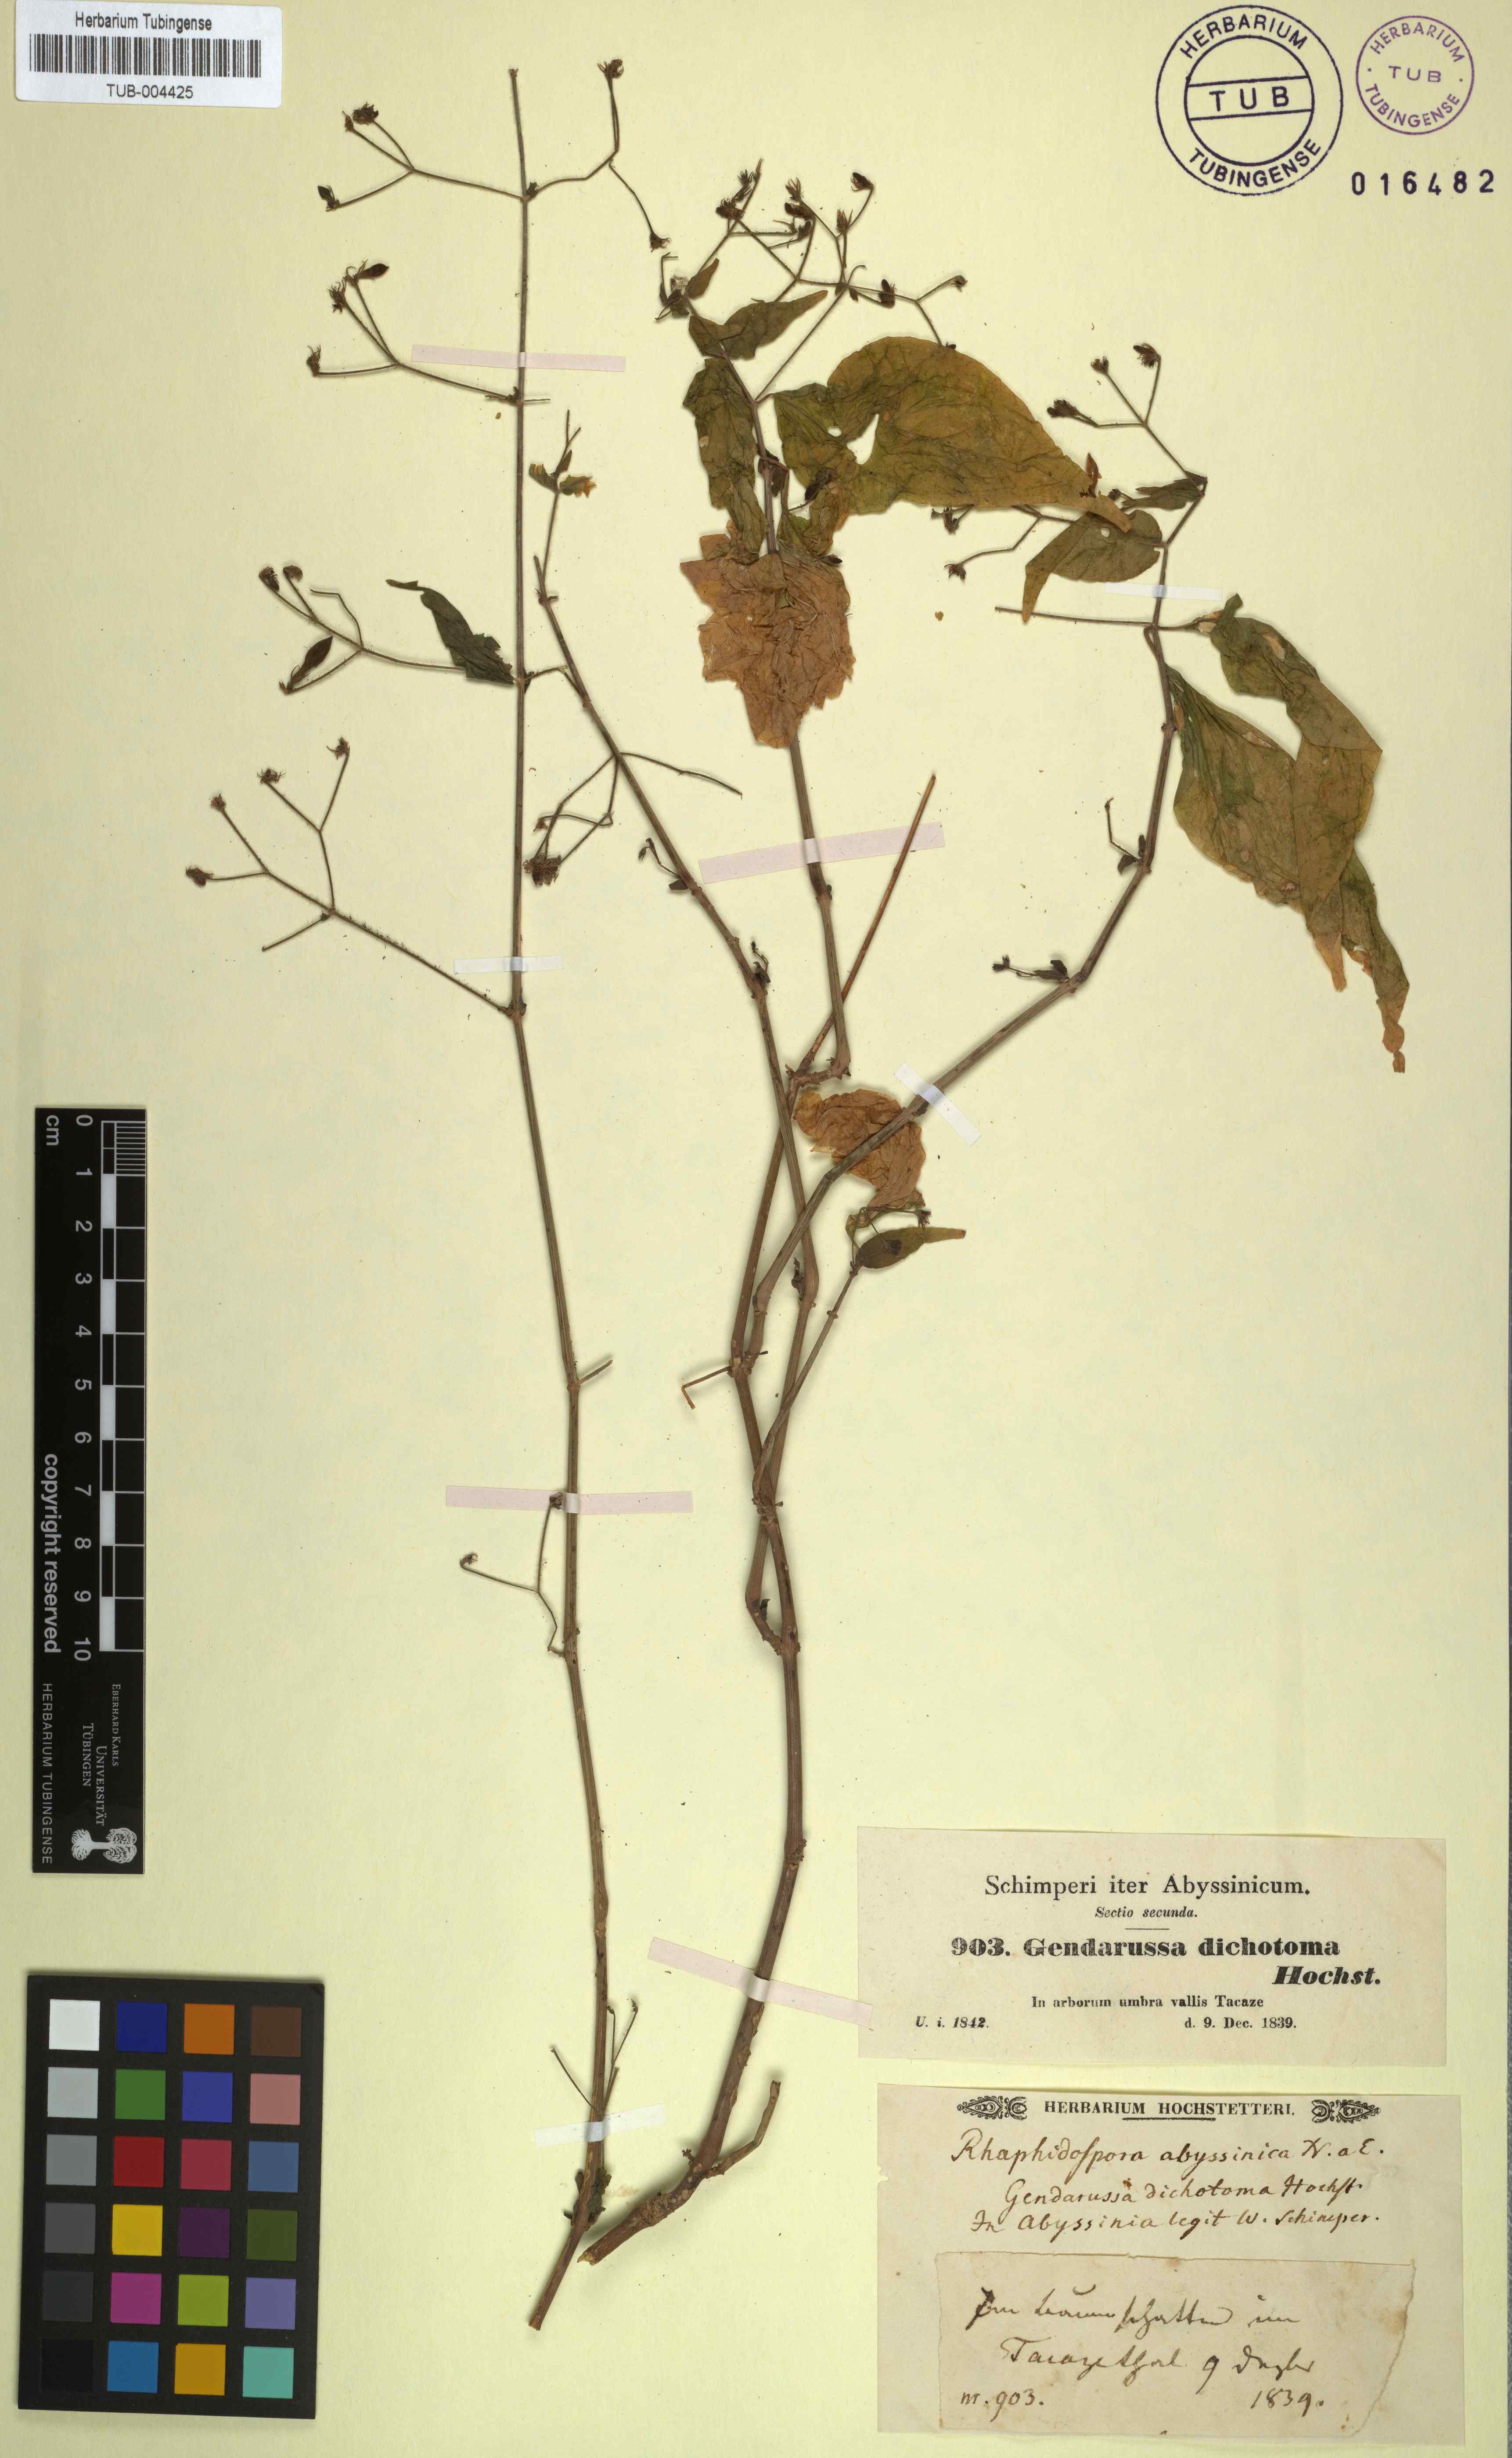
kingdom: Plantae
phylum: Tracheophyta
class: Magnoliopsida
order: Lamiales
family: Acanthaceae
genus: Justicia
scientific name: Justicia scandens
